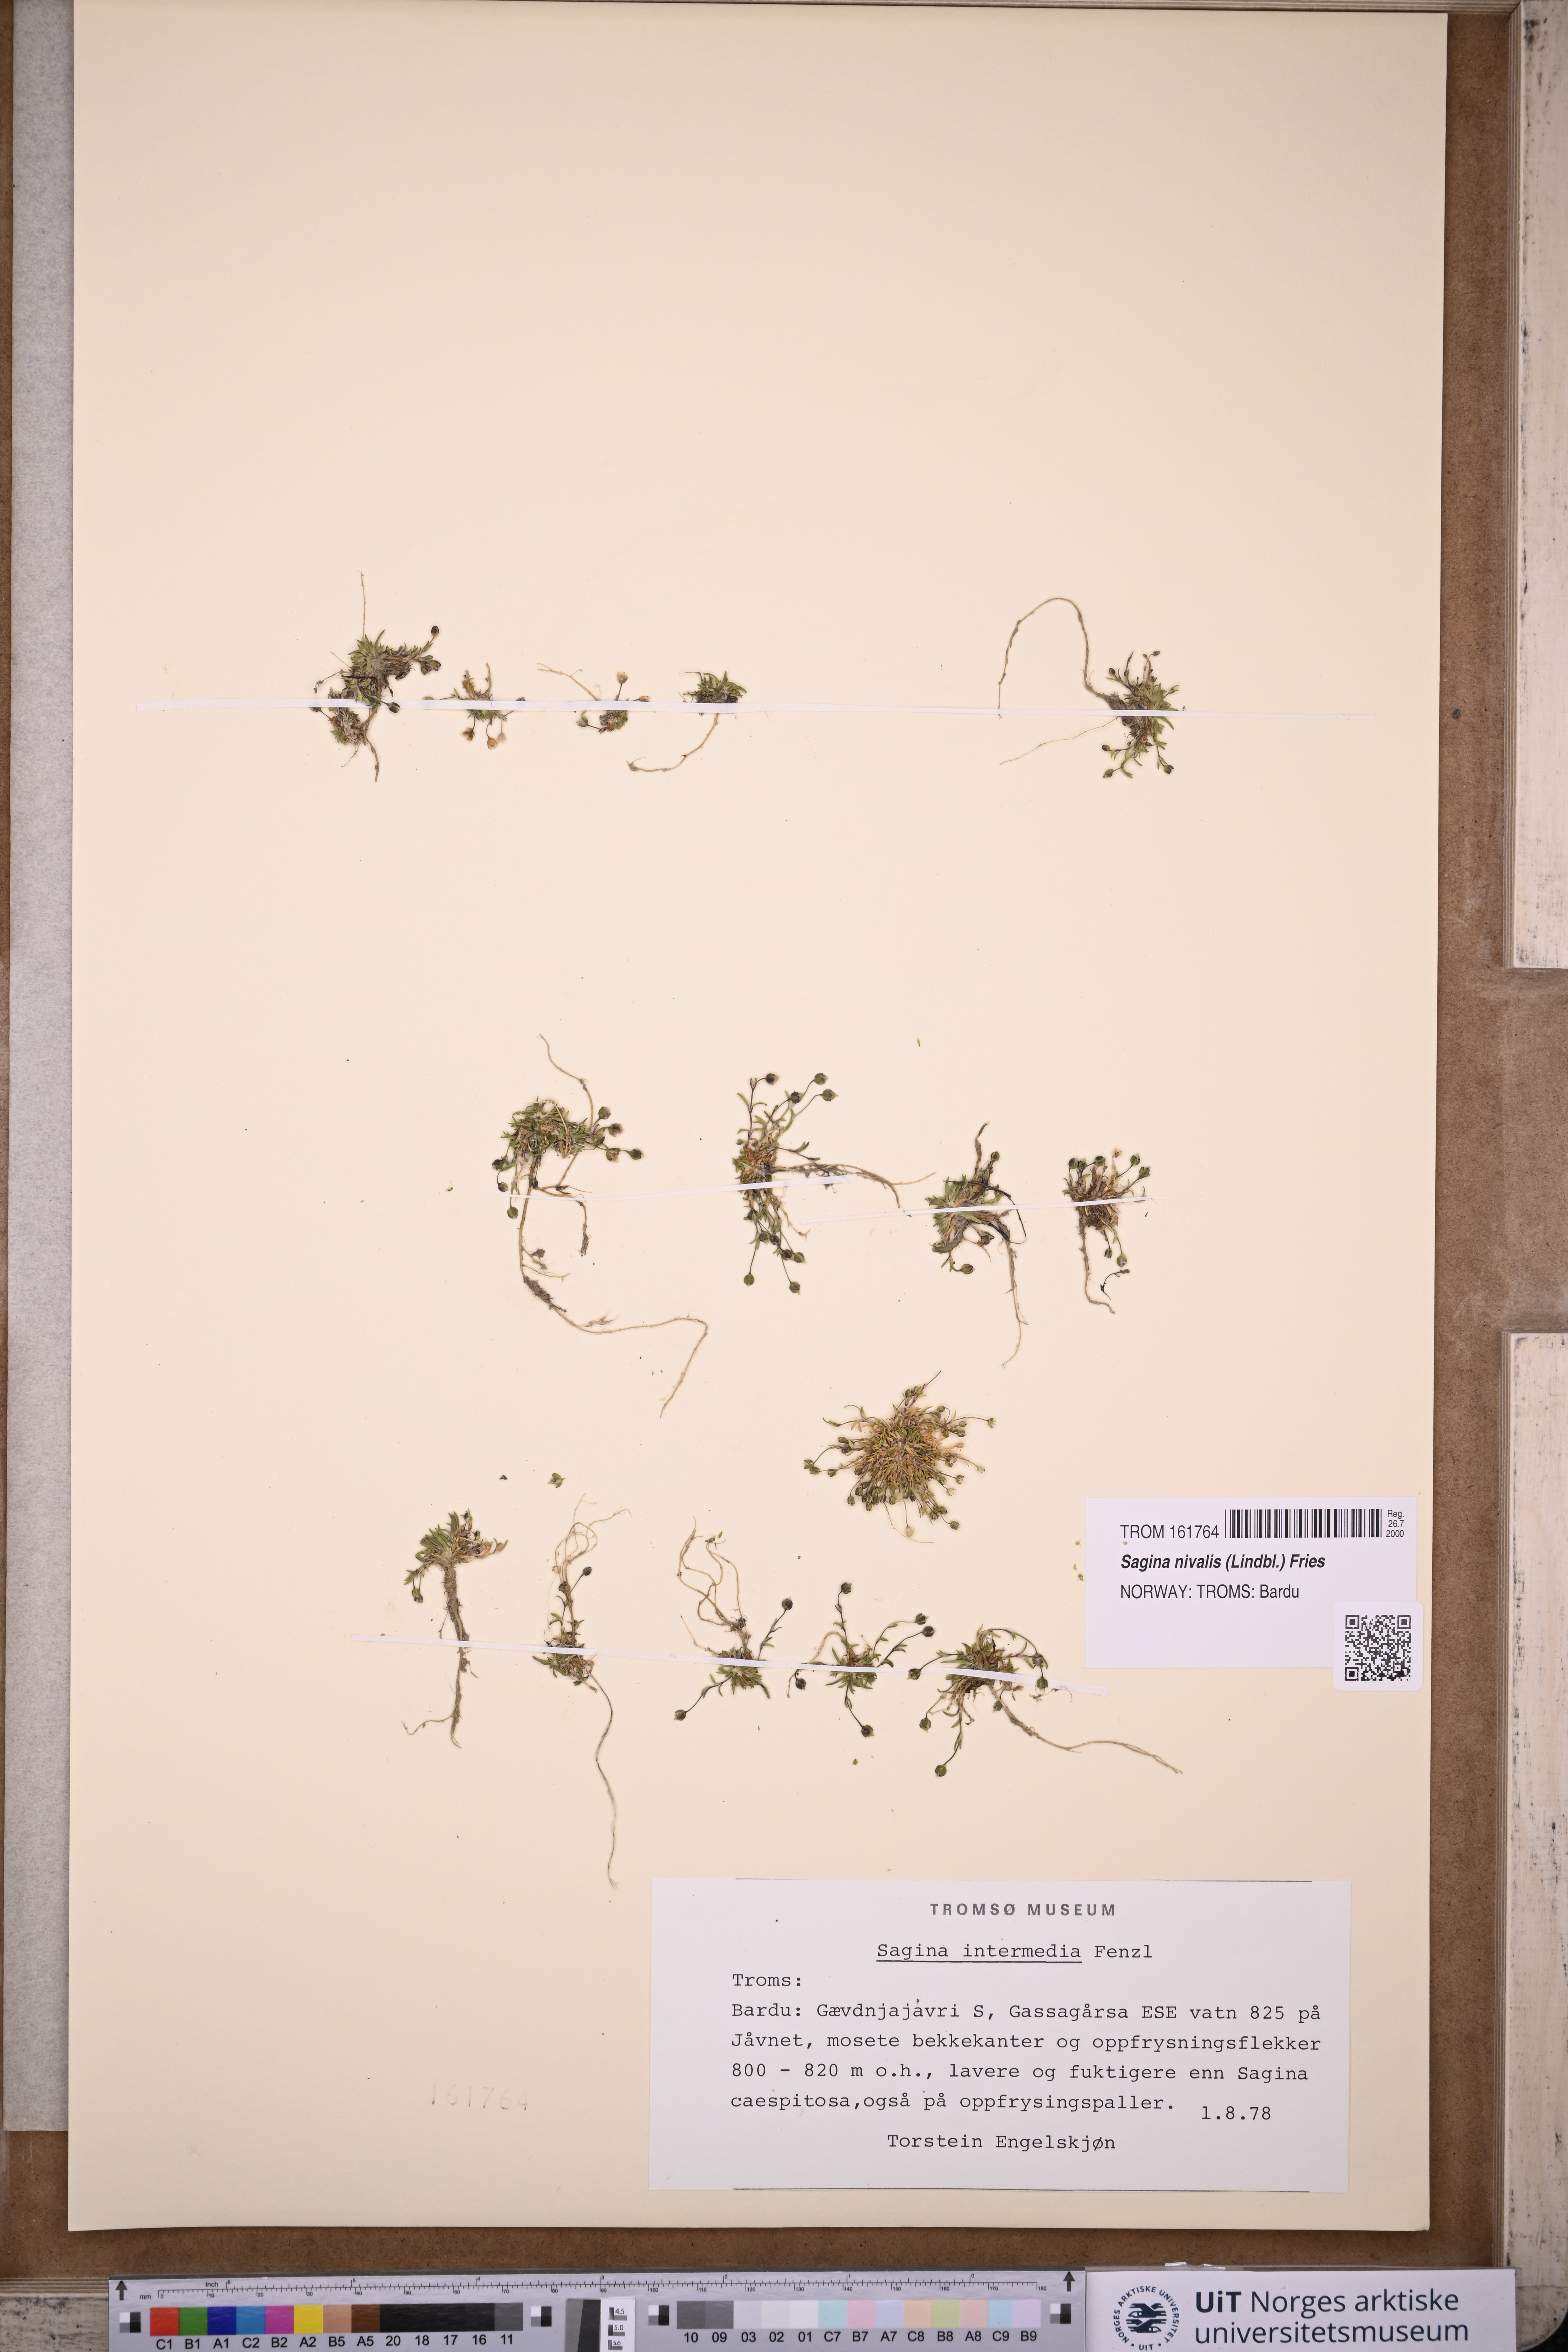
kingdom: Plantae
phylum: Tracheophyta
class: Magnoliopsida
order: Caryophyllales
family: Caryophyllaceae
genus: Sagina
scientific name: Sagina nivalis
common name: Snow pearlwort
